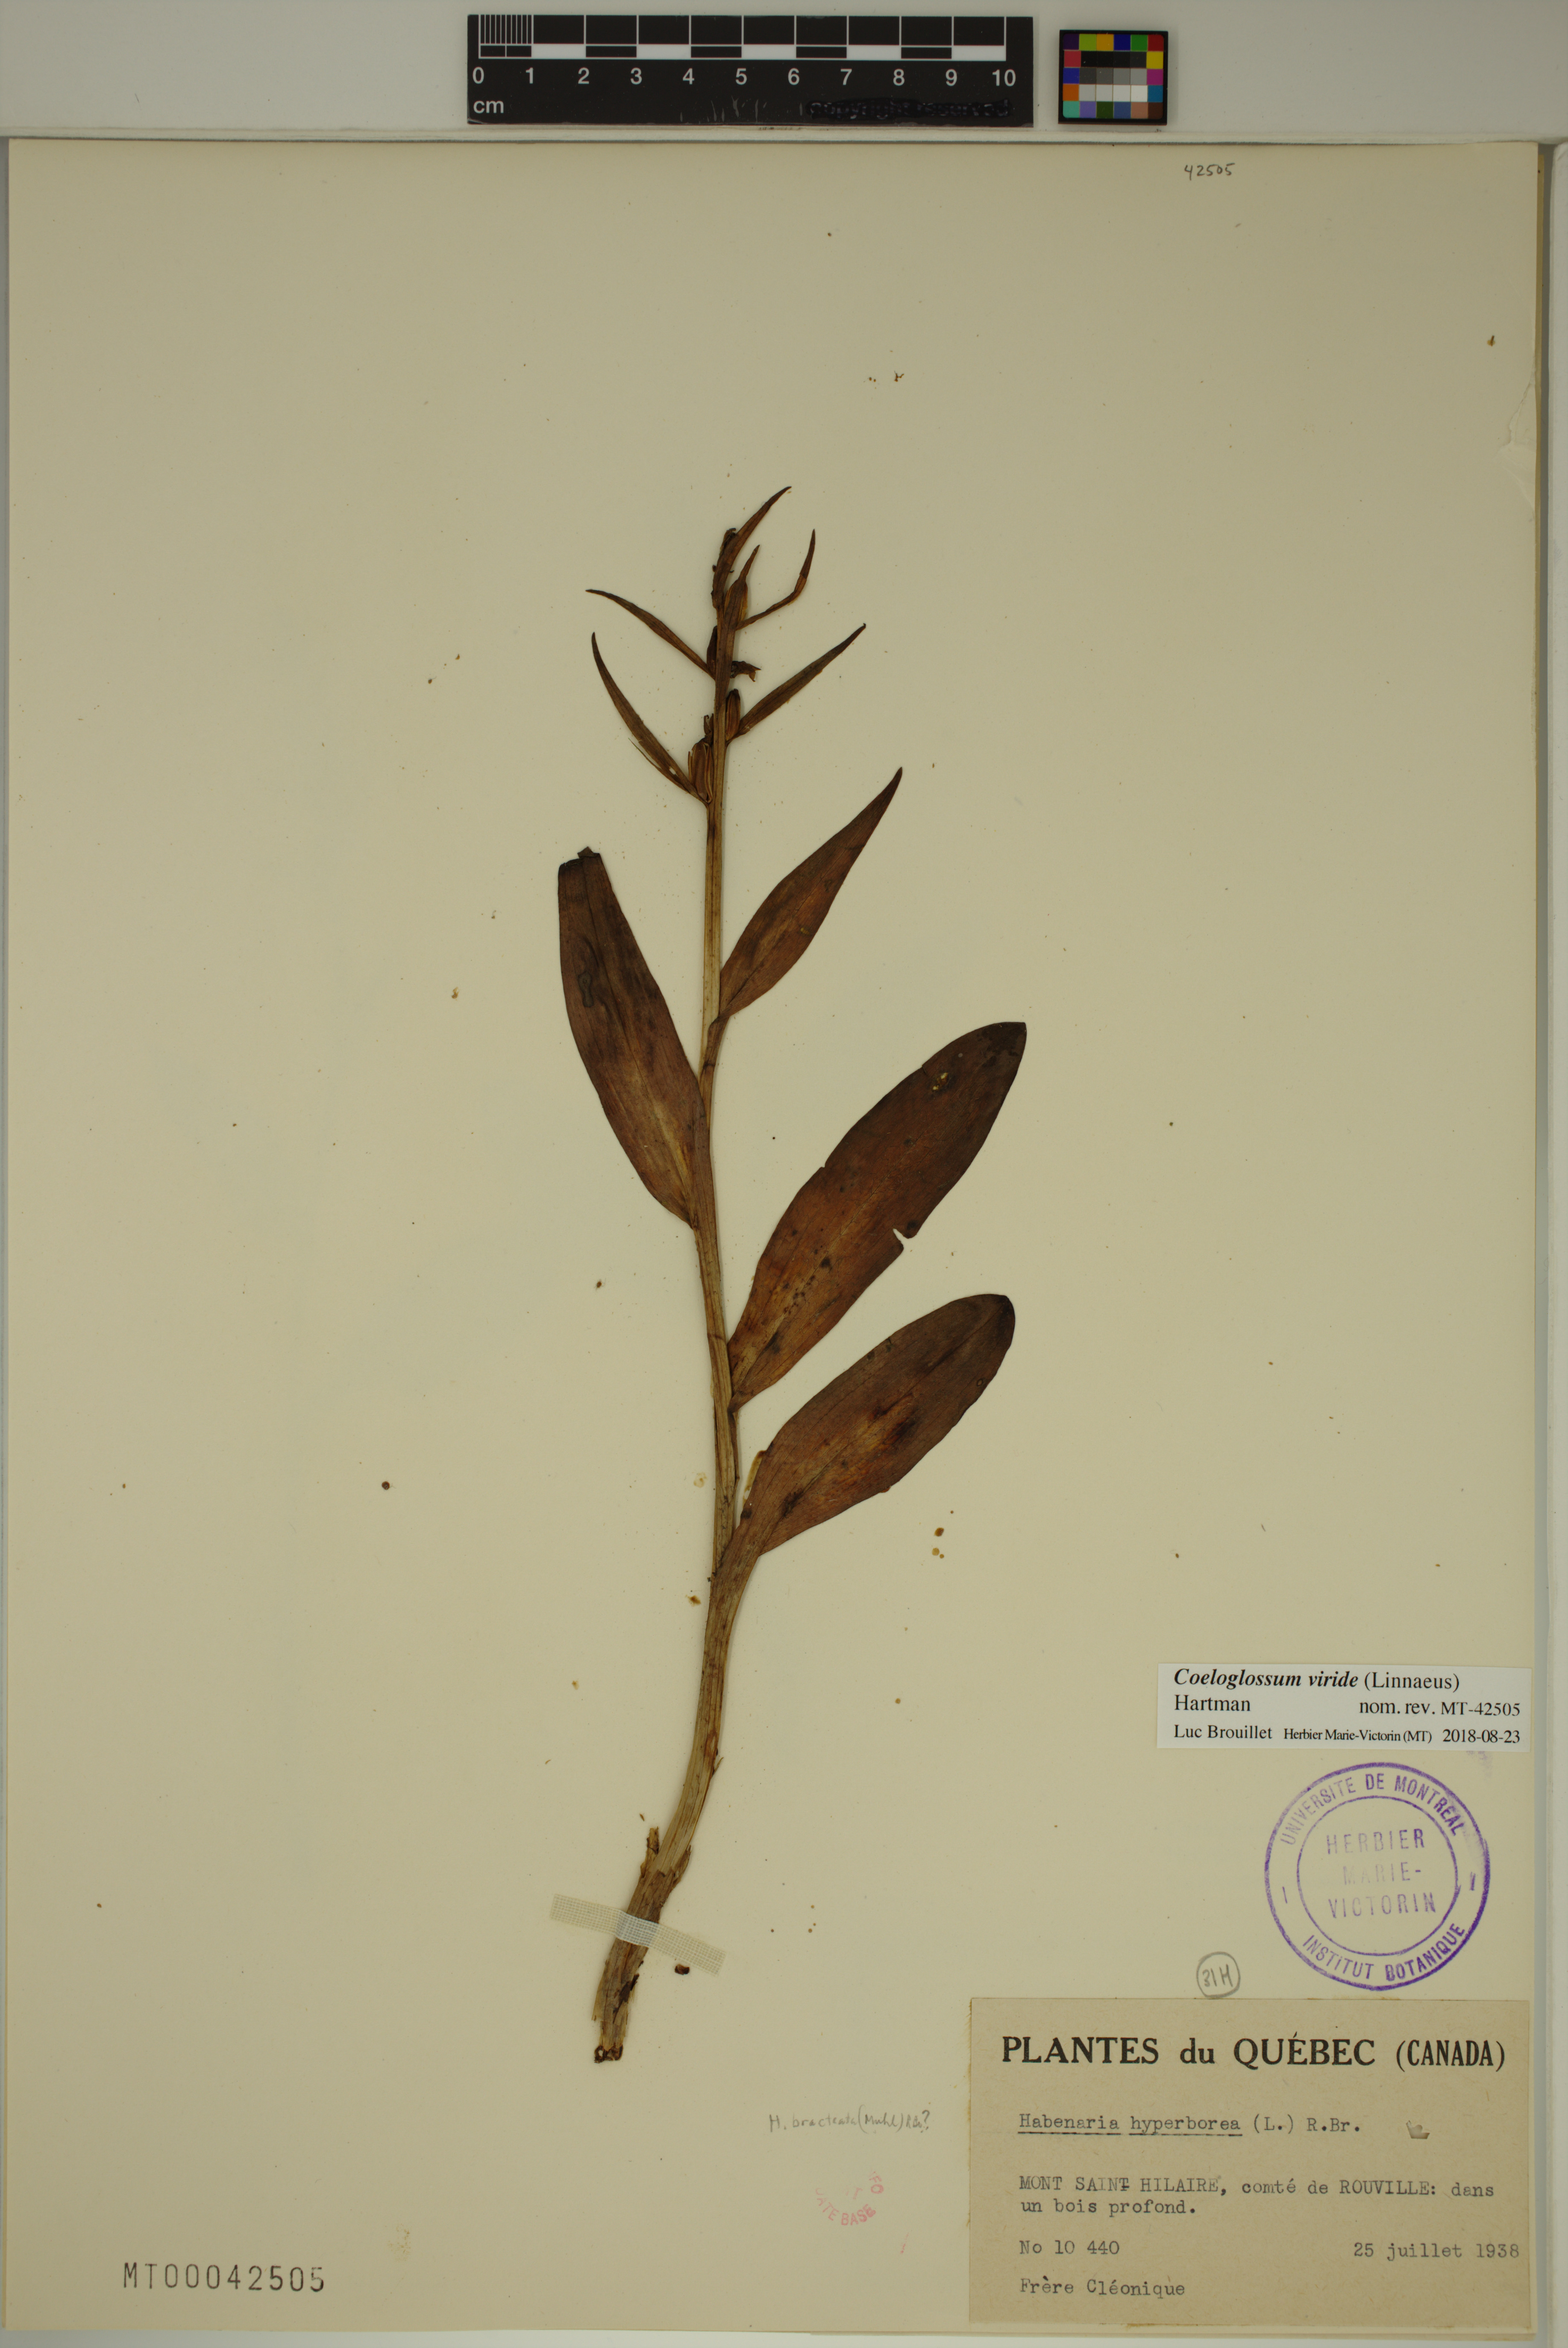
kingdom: Plantae
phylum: Tracheophyta
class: Liliopsida
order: Asparagales
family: Orchidaceae
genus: Dactylorhiza
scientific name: Dactylorhiza viridis
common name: Longbract frog orchid
